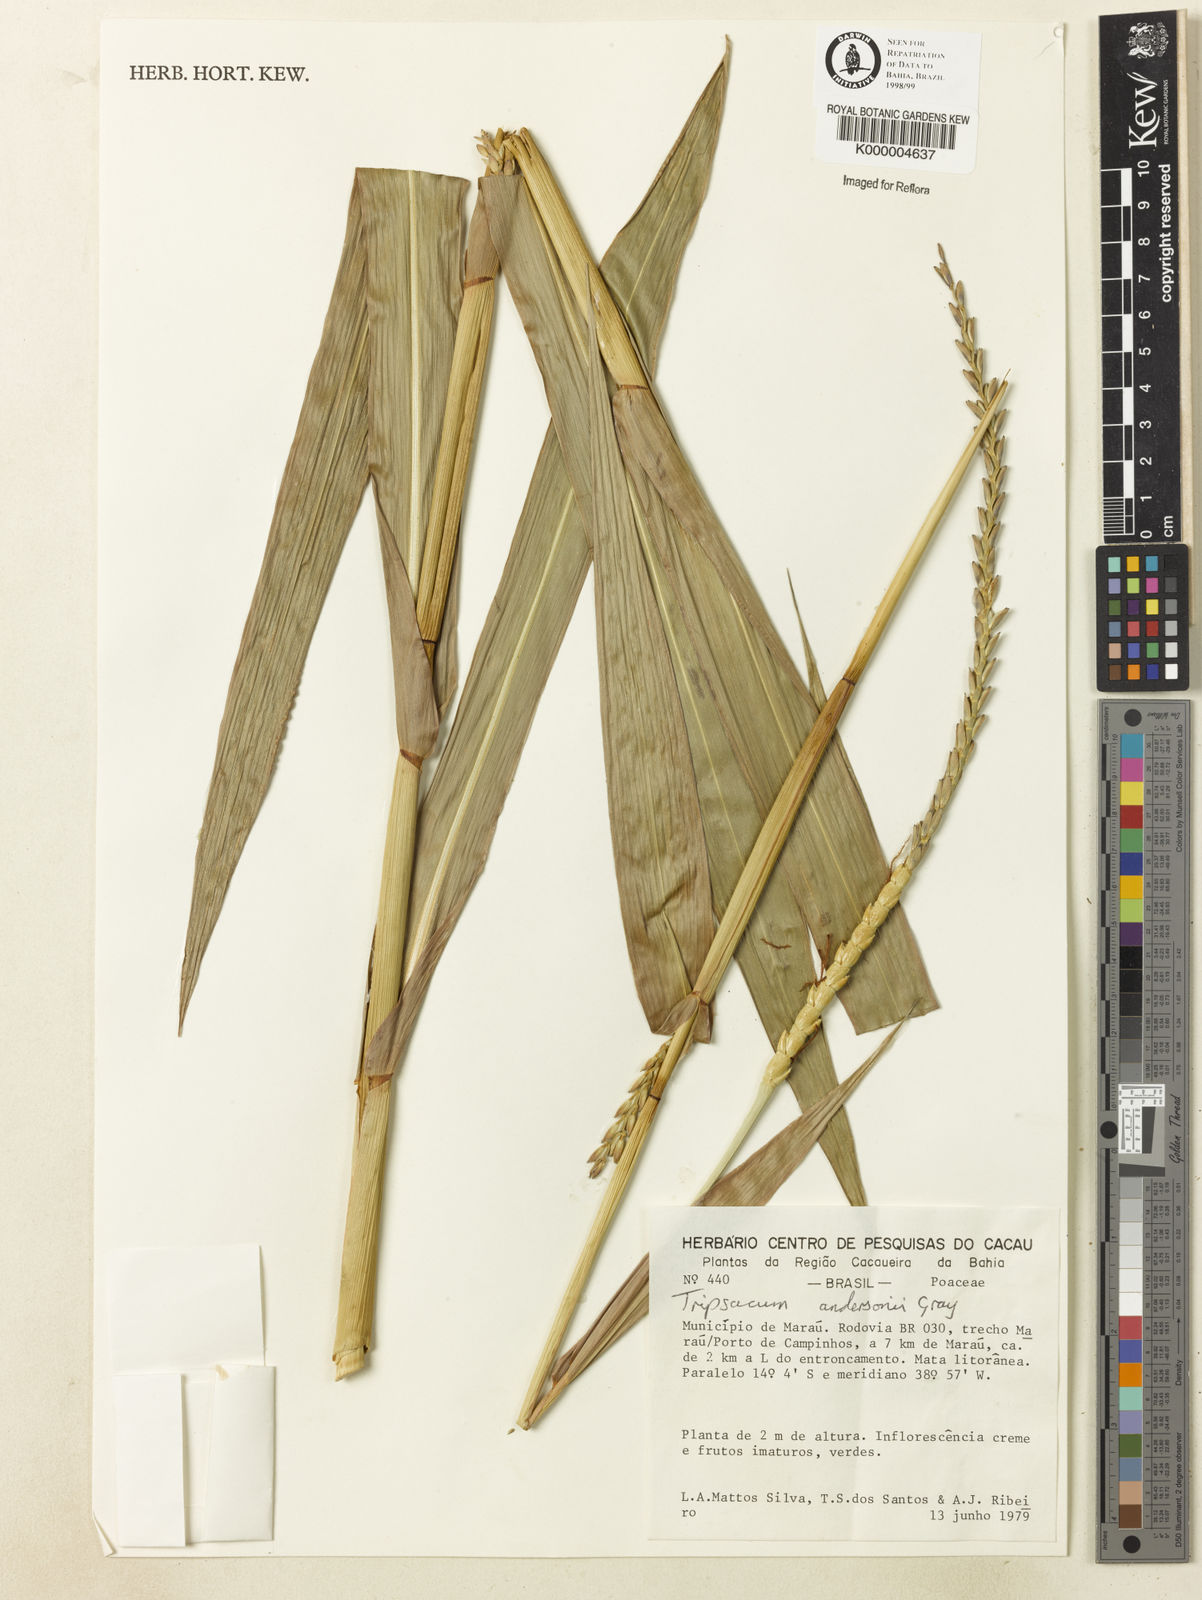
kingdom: Plantae
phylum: Tracheophyta
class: Liliopsida
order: Poales
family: Poaceae
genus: Tripsacum
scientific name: Tripsacum andersonii
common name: Guatemalan grass
